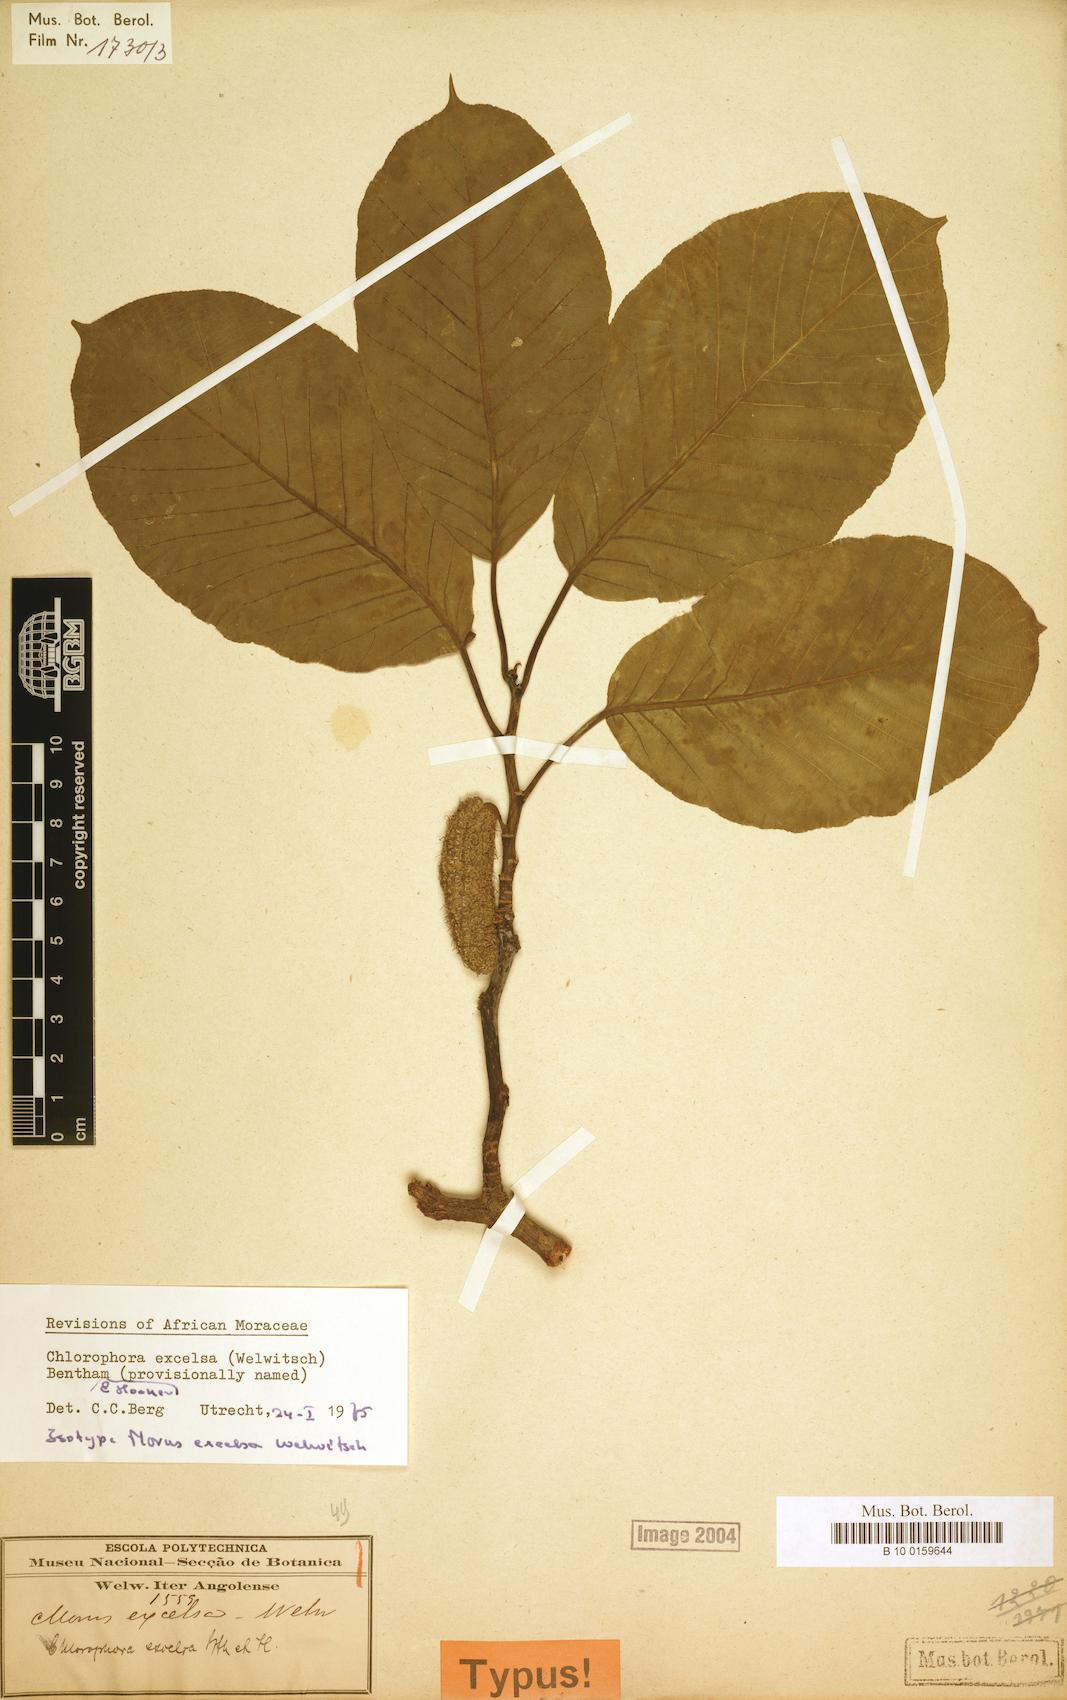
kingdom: Plantae
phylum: Tracheophyta
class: Magnoliopsida
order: Rosales
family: Moraceae
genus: Milicia
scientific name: Milicia excelsa
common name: African teak
